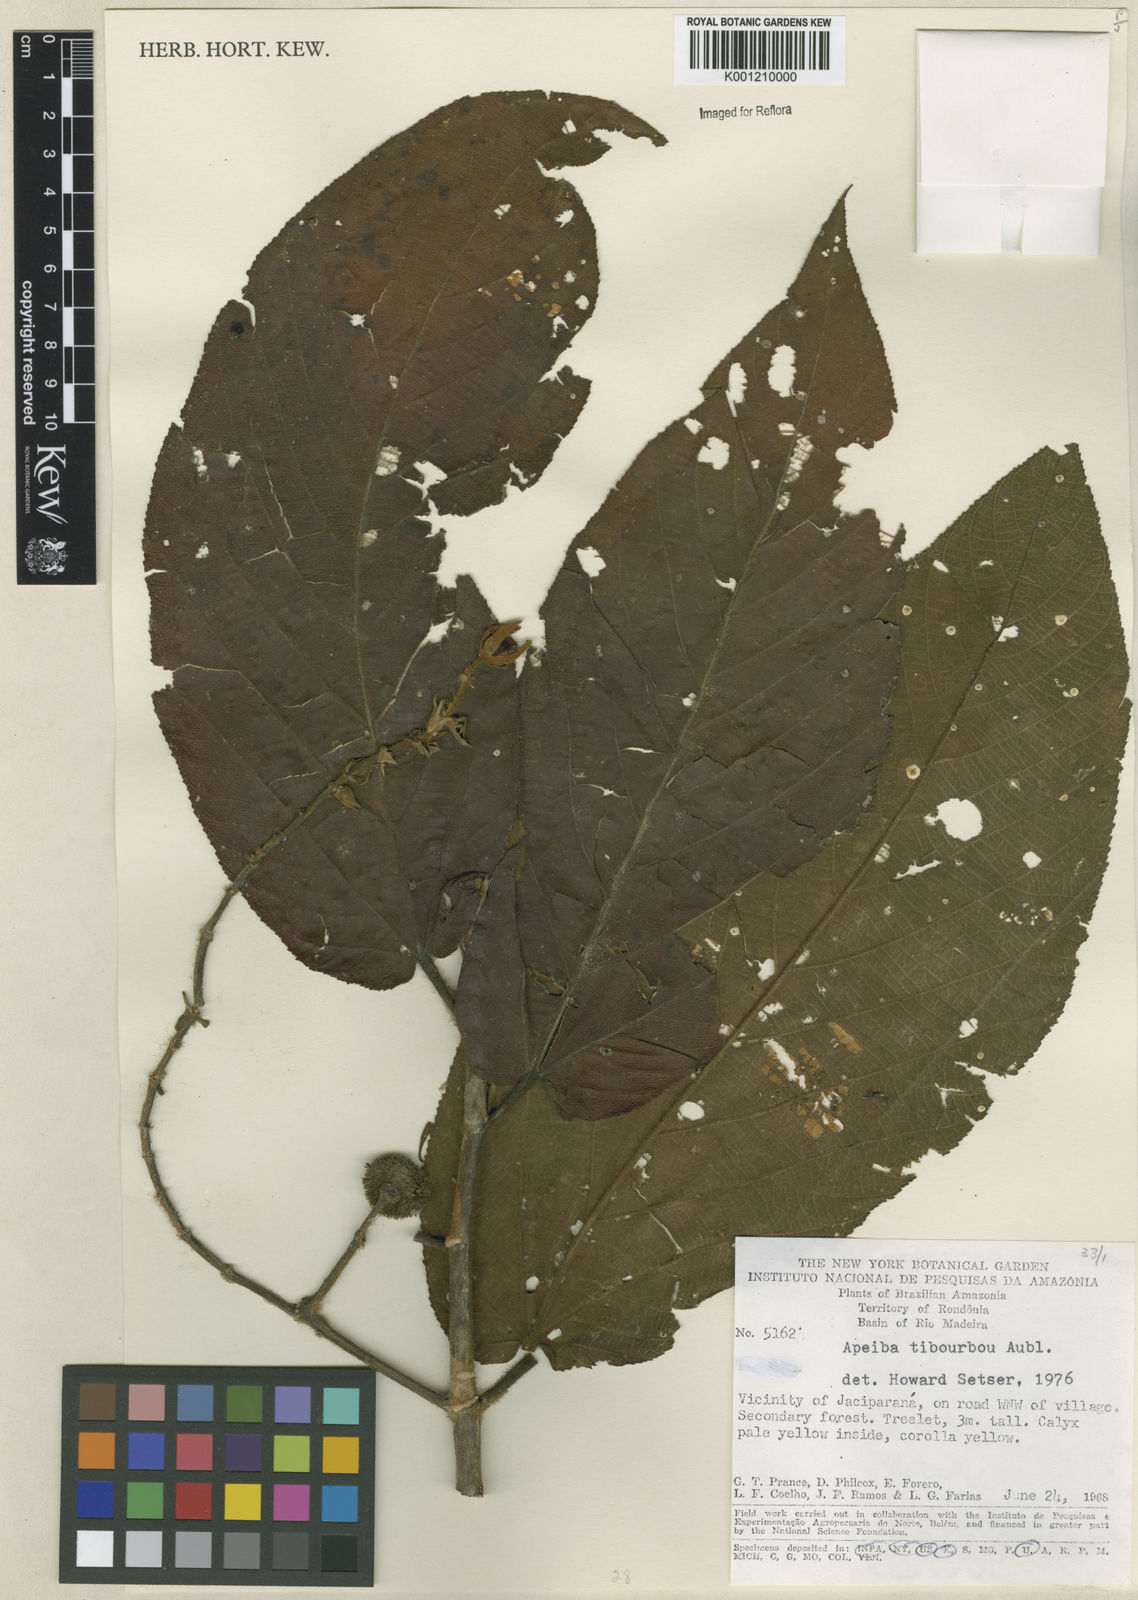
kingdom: Plantae
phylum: Tracheophyta
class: Magnoliopsida
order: Malvales
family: Malvaceae
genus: Apeiba
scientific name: Apeiba tibourbou
